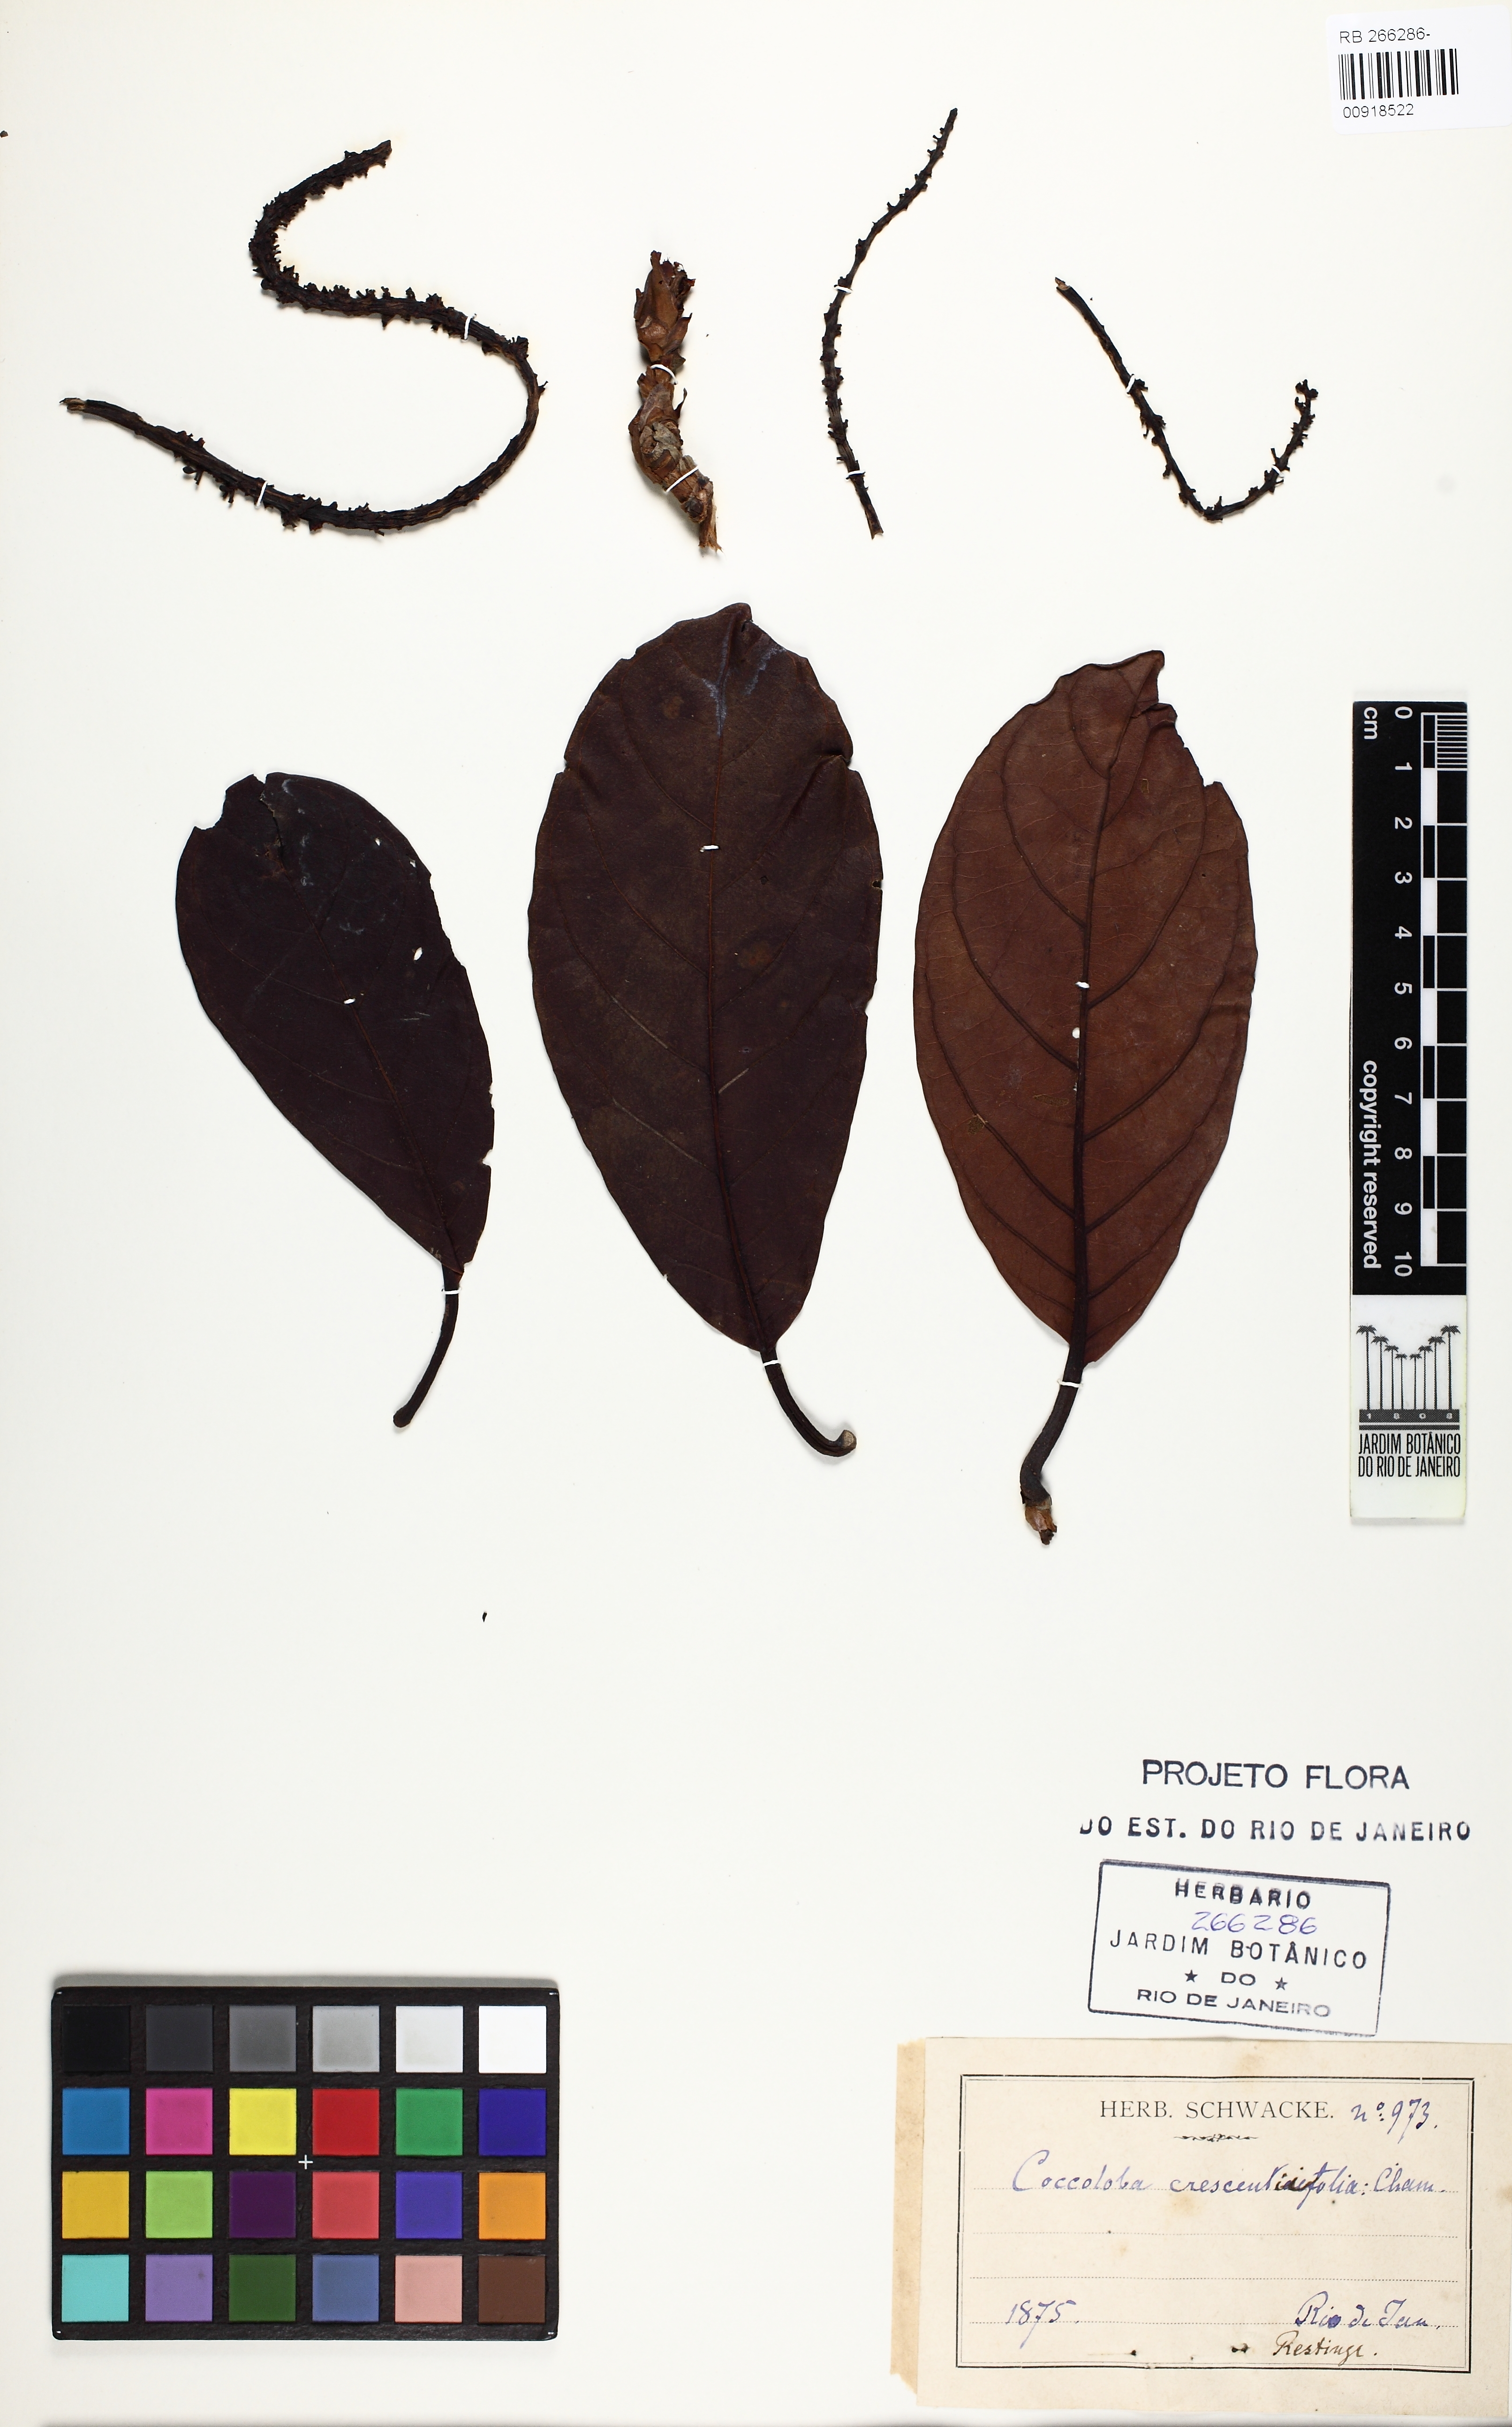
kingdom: Plantae
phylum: Tracheophyta
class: Magnoliopsida
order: Caryophyllales
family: Polygonaceae
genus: Coccoloba
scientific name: Coccoloba arborescens
